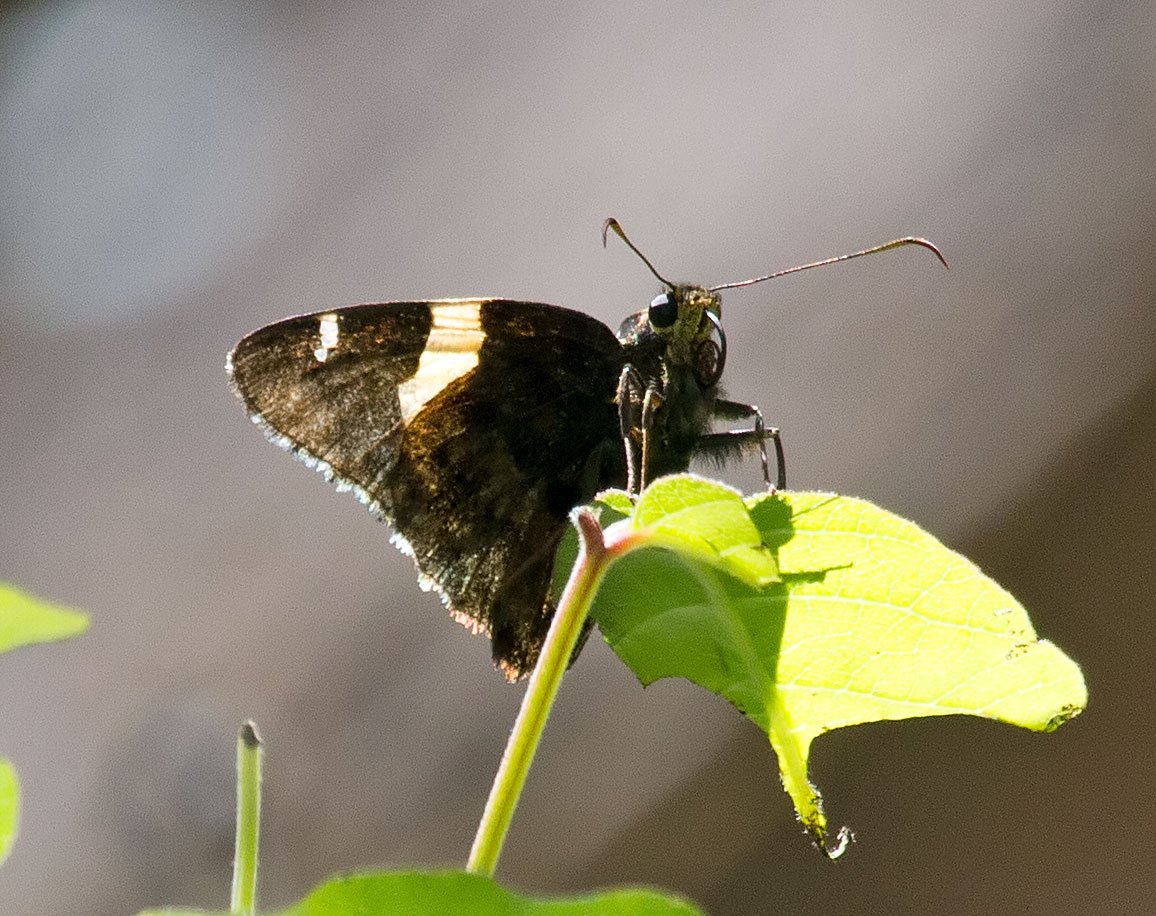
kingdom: Animalia
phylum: Arthropoda
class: Insecta
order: Lepidoptera
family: Hesperiidae
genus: Autochton
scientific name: Autochton cellus
